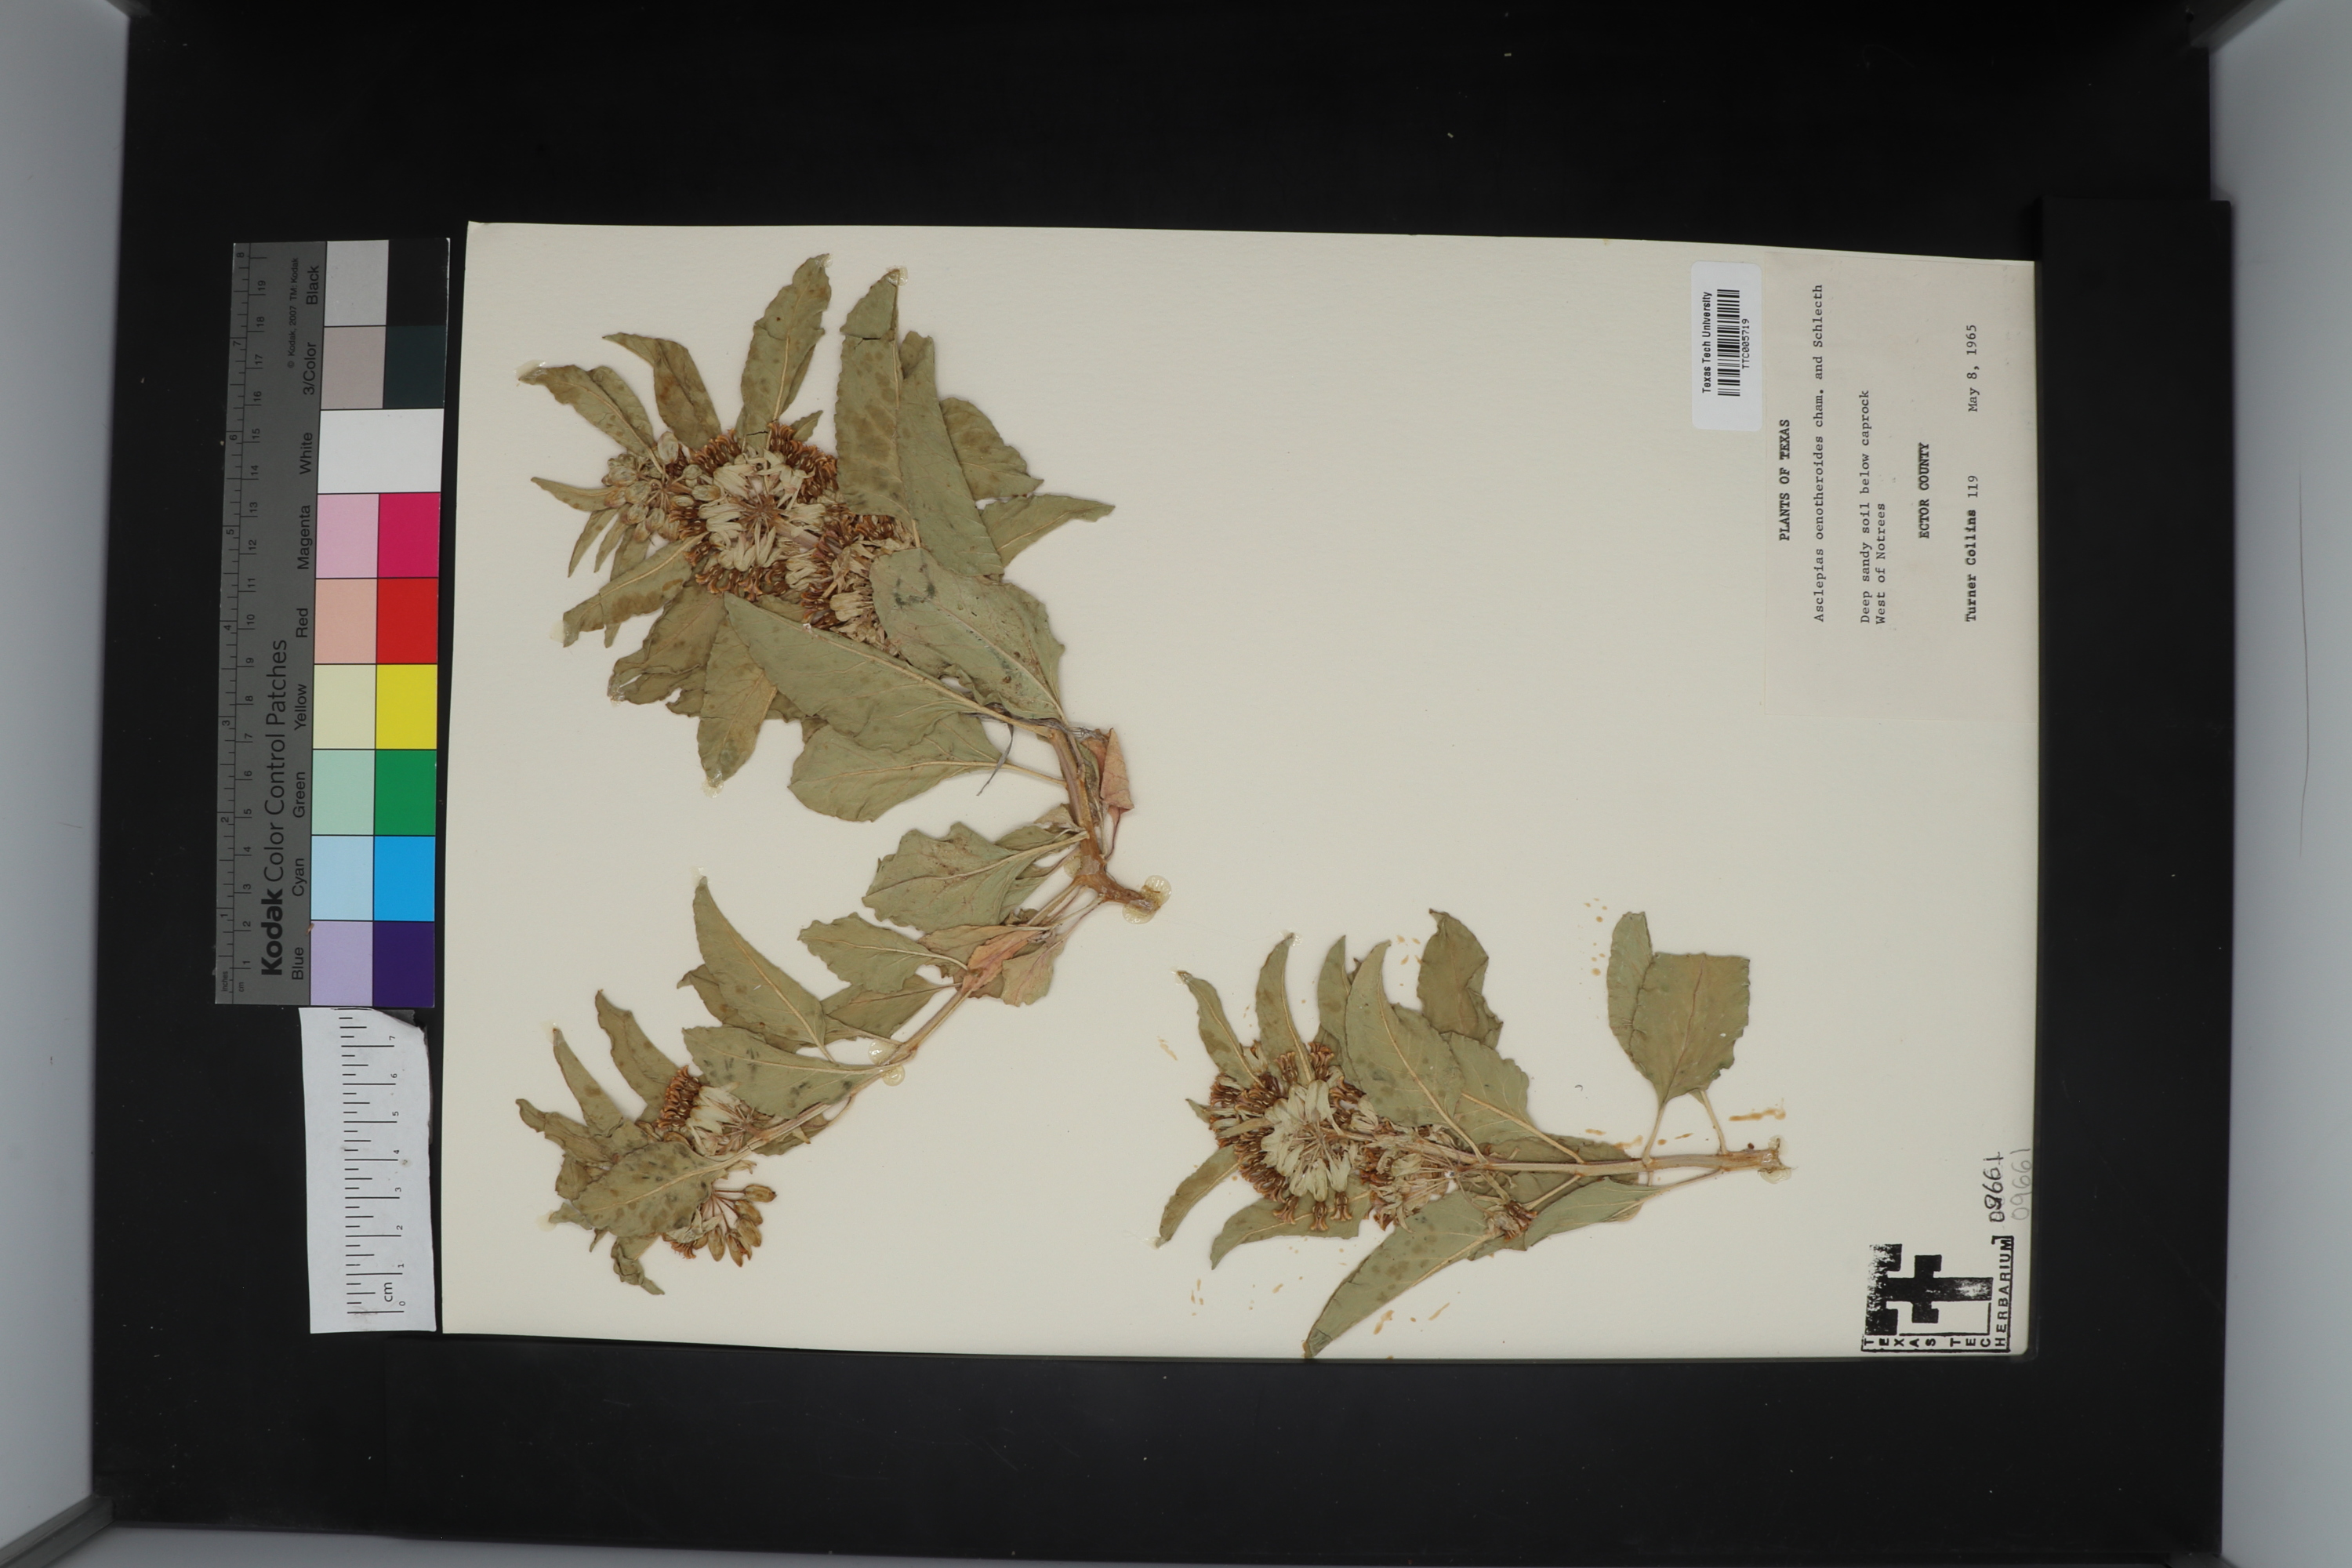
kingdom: Plantae
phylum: Tracheophyta
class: Magnoliopsida
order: Gentianales
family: Apocynaceae
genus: Asclepias
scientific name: Asclepias oenotheroides
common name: Zizotes milkweed
